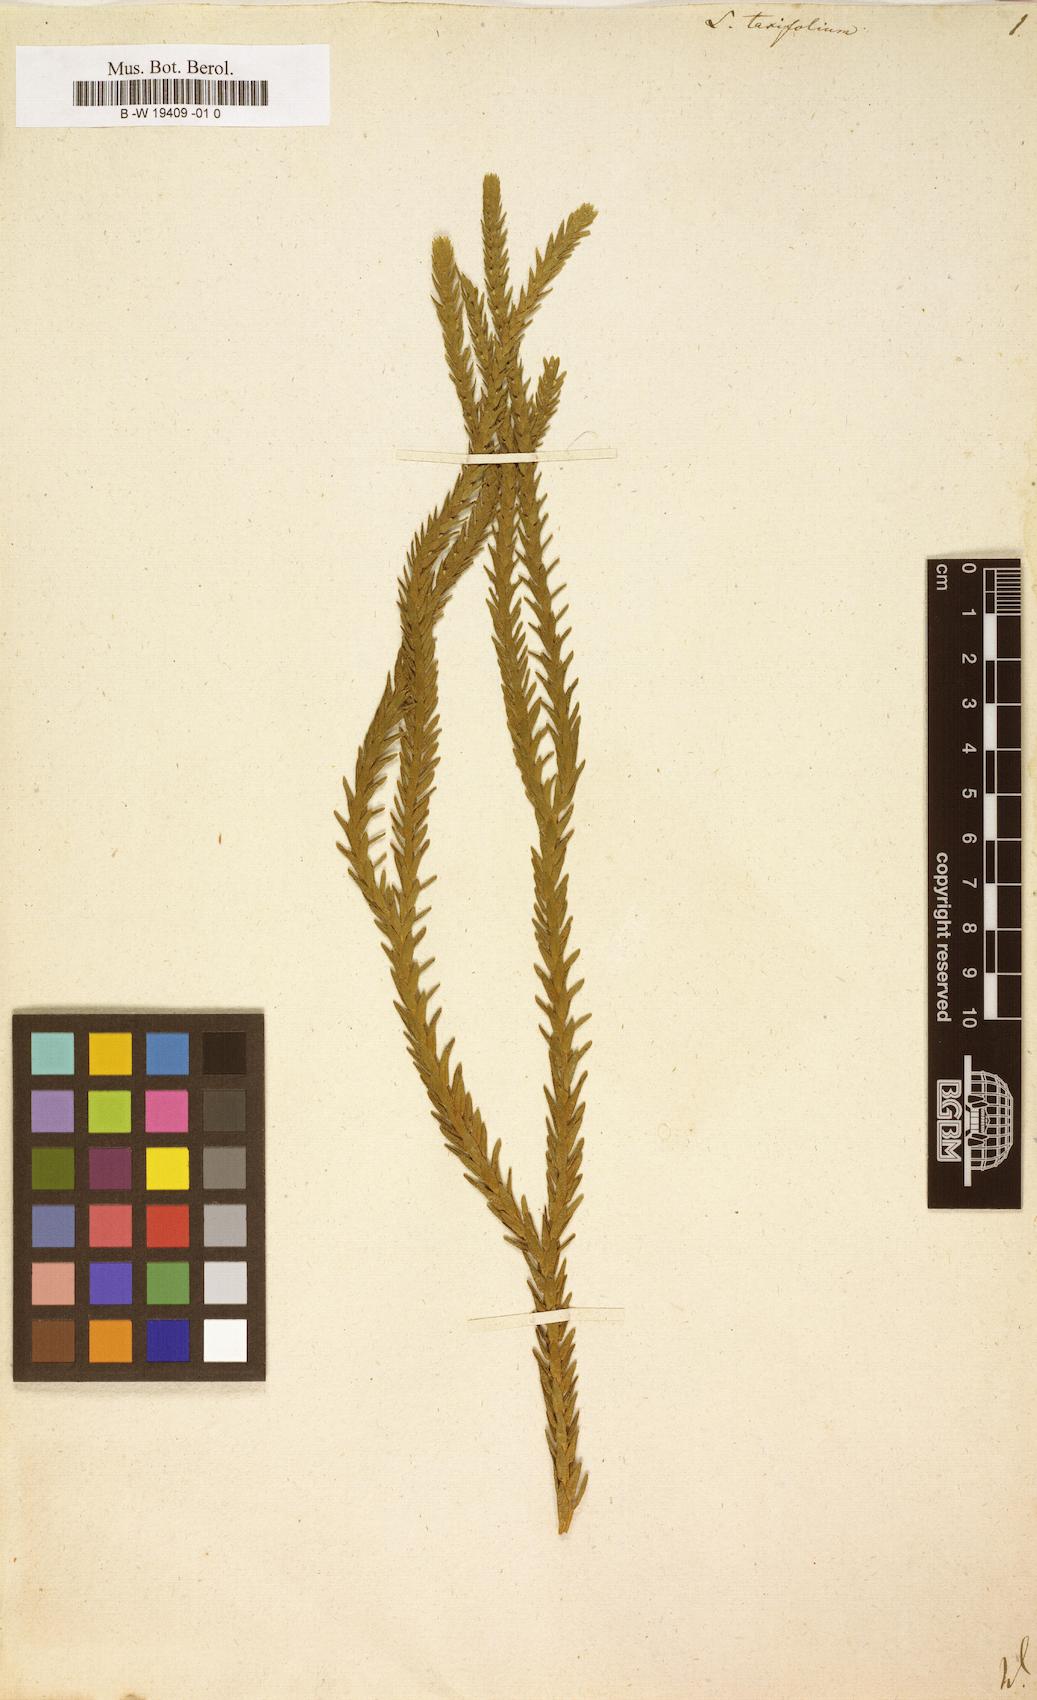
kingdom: Plantae
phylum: Tracheophyta
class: Lycopodiopsida
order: Lycopodiales
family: Lycopodiaceae
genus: Phlegmariurus
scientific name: Phlegmariurus taxifolius
